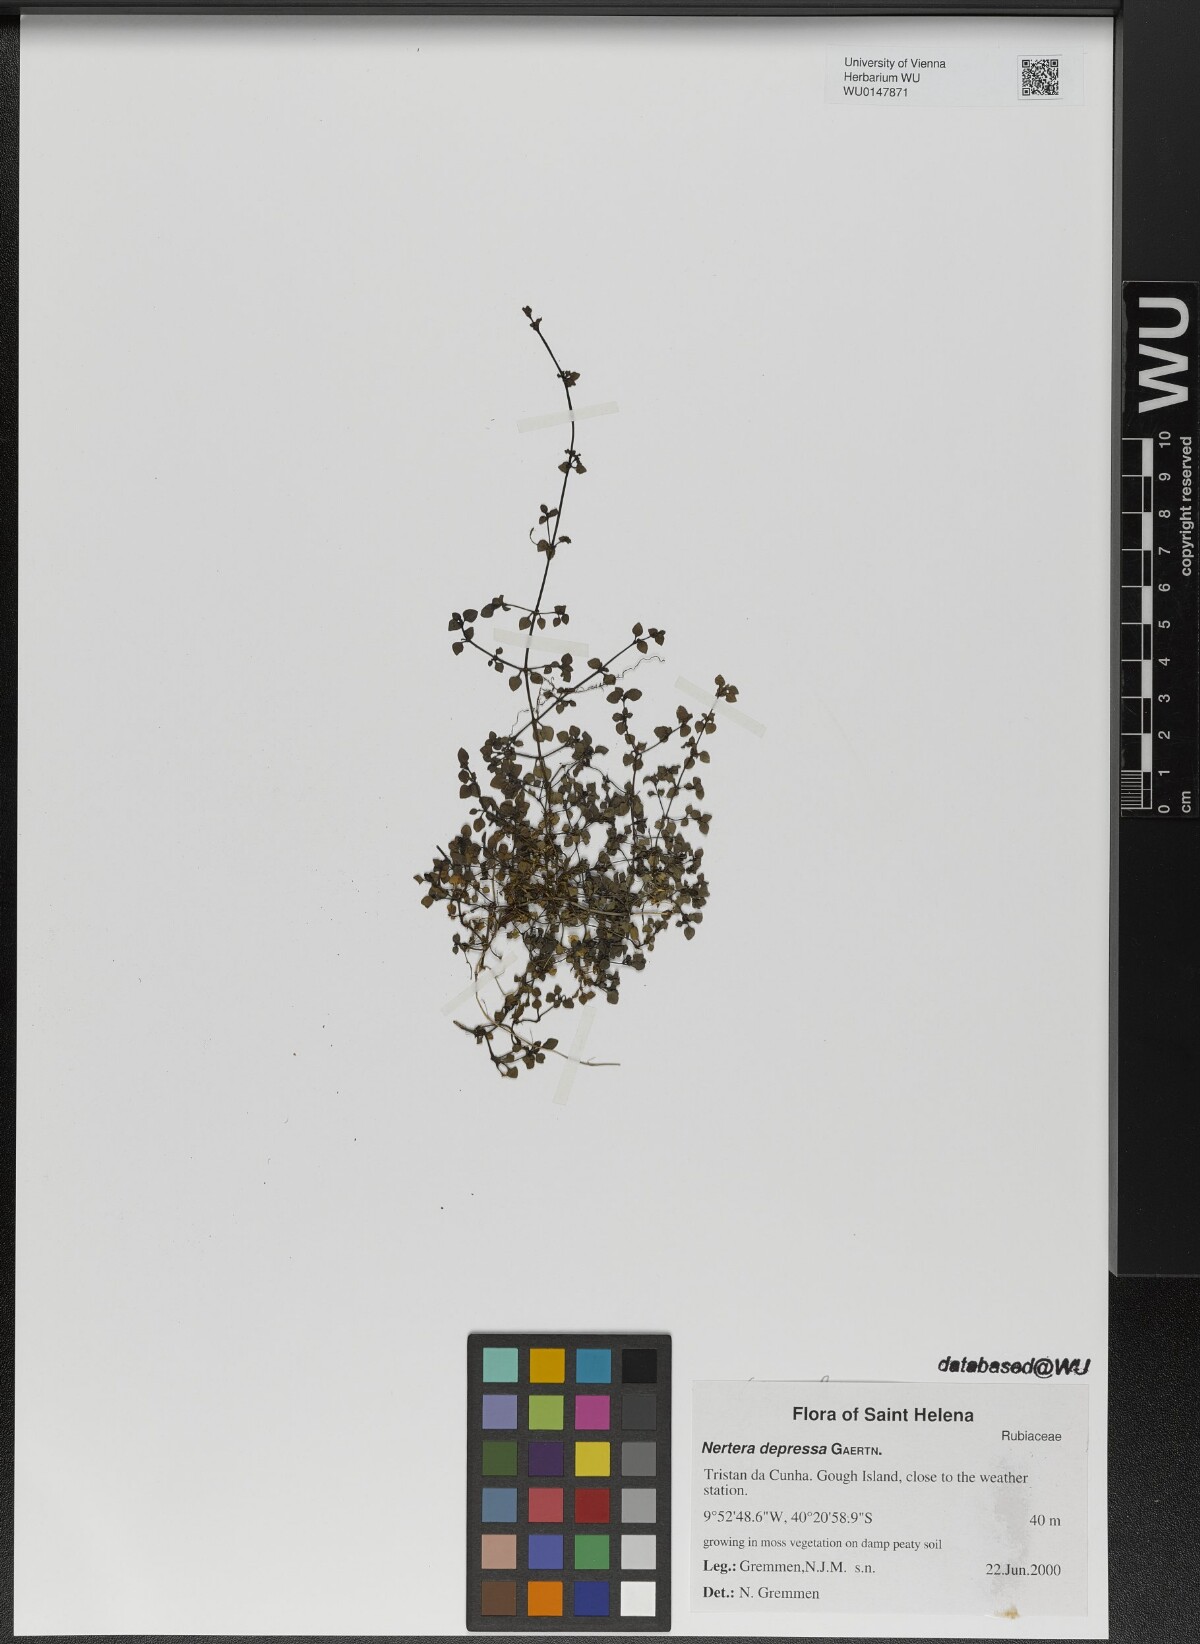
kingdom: Plantae
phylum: Tracheophyta
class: Magnoliopsida
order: Gentianales
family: Rubiaceae
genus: Nertera
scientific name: Nertera granadensis
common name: Beadplant
